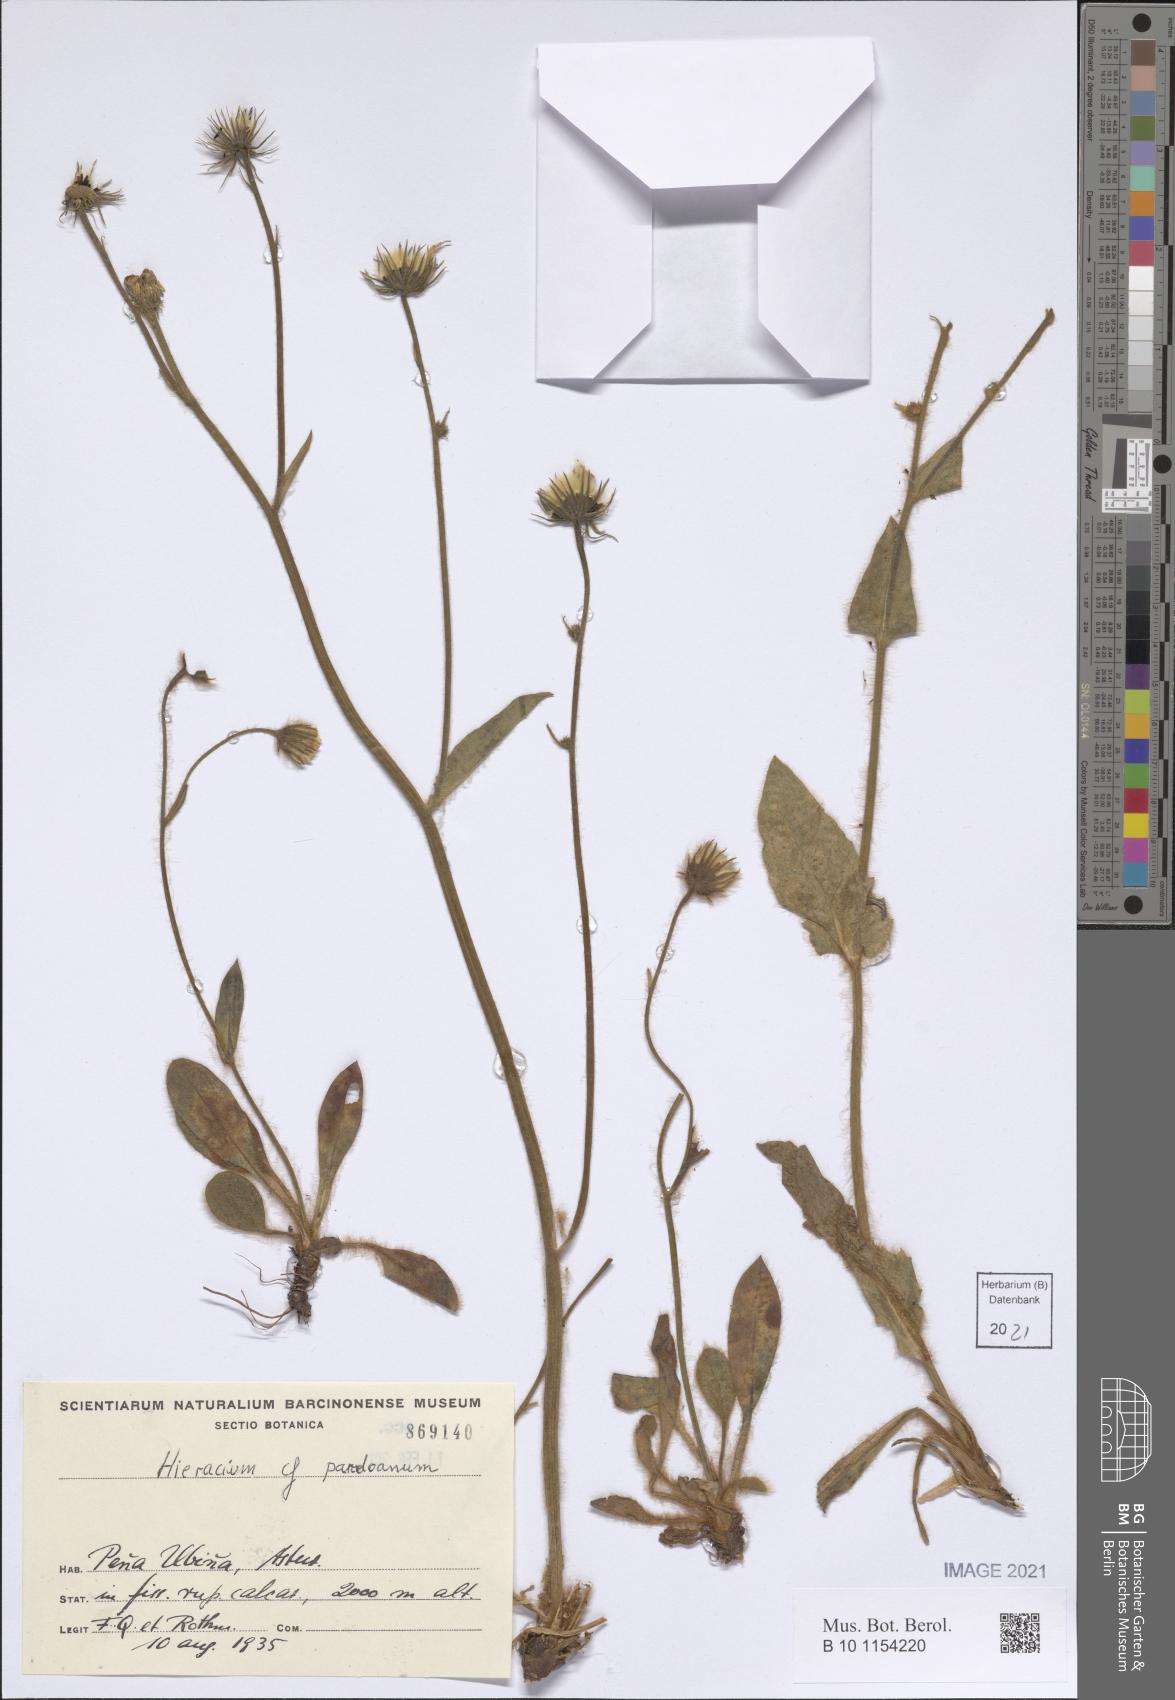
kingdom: Plantae
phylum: Tracheophyta
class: Magnoliopsida
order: Asterales
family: Asteraceae
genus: Hieracium
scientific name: Hieracium baenitzianum
